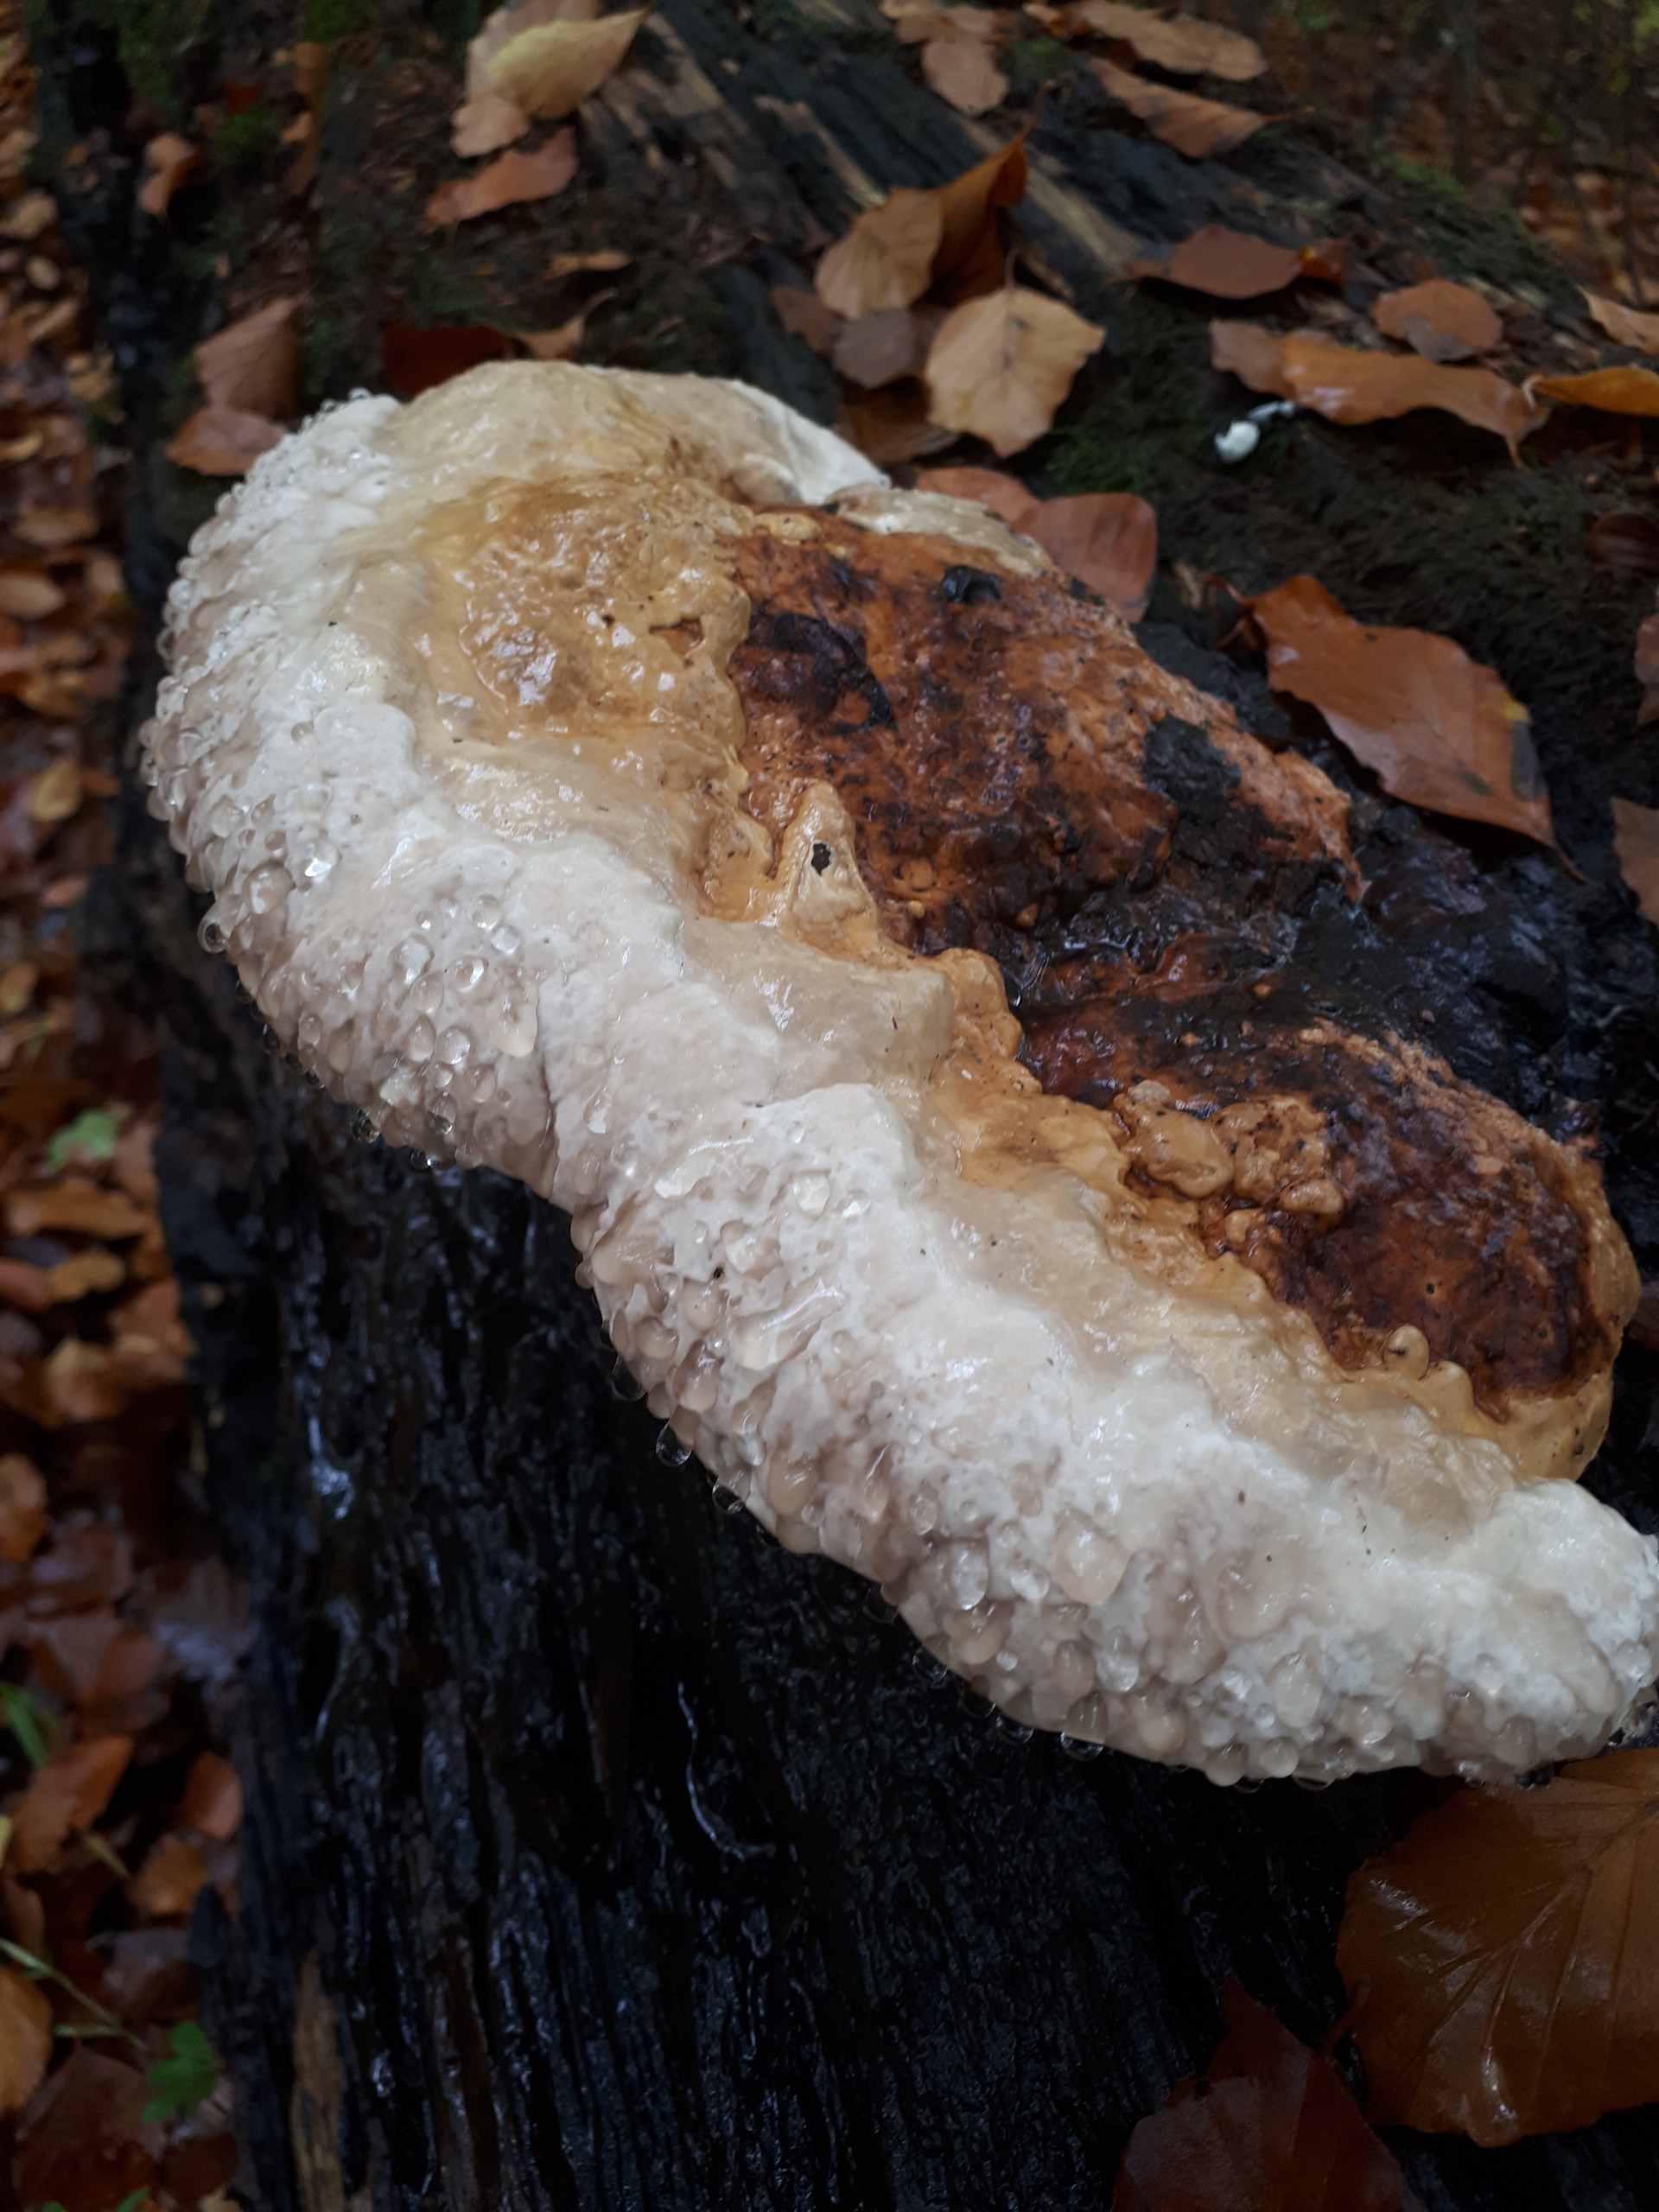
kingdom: Fungi
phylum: Basidiomycota
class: Agaricomycetes
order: Polyporales
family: Fomitopsidaceae
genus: Fomitopsis
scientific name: Fomitopsis pinicola
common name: Randbæltet hovporesvamp
